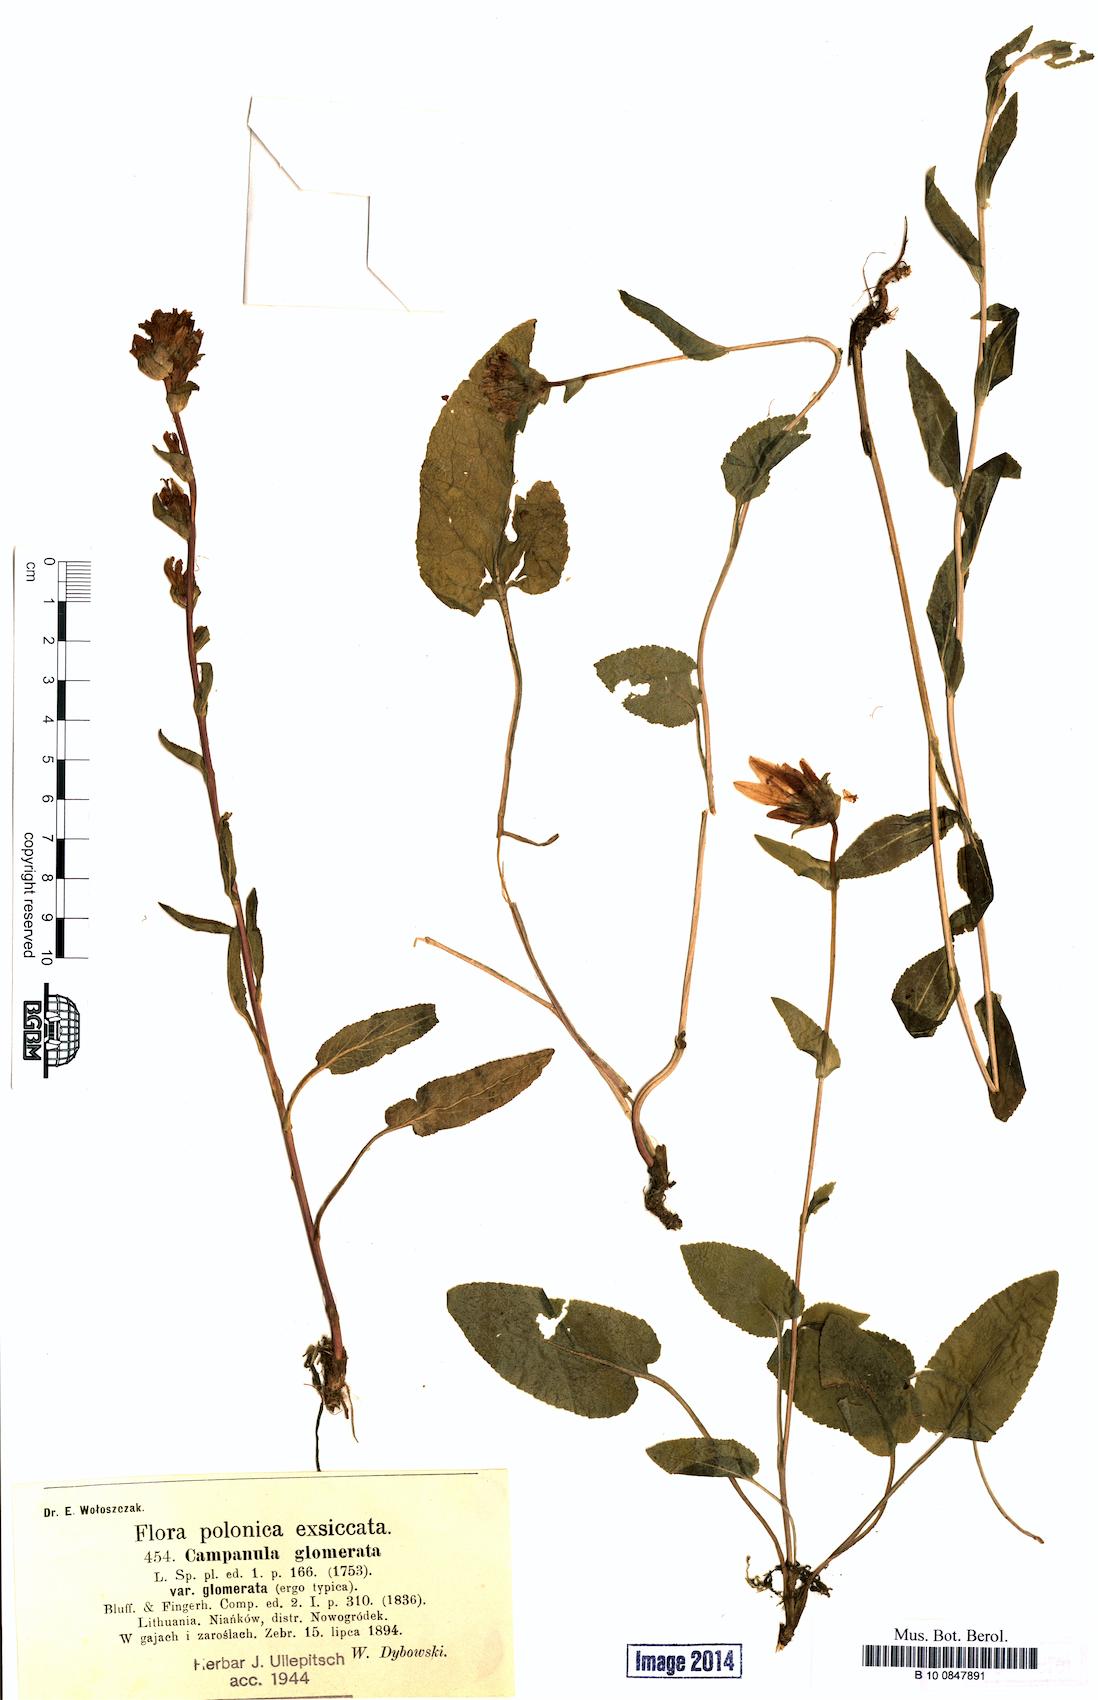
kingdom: Plantae
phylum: Tracheophyta
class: Magnoliopsida
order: Asterales
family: Campanulaceae
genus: Campanula
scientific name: Campanula glomerata
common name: Clustered bellflower
